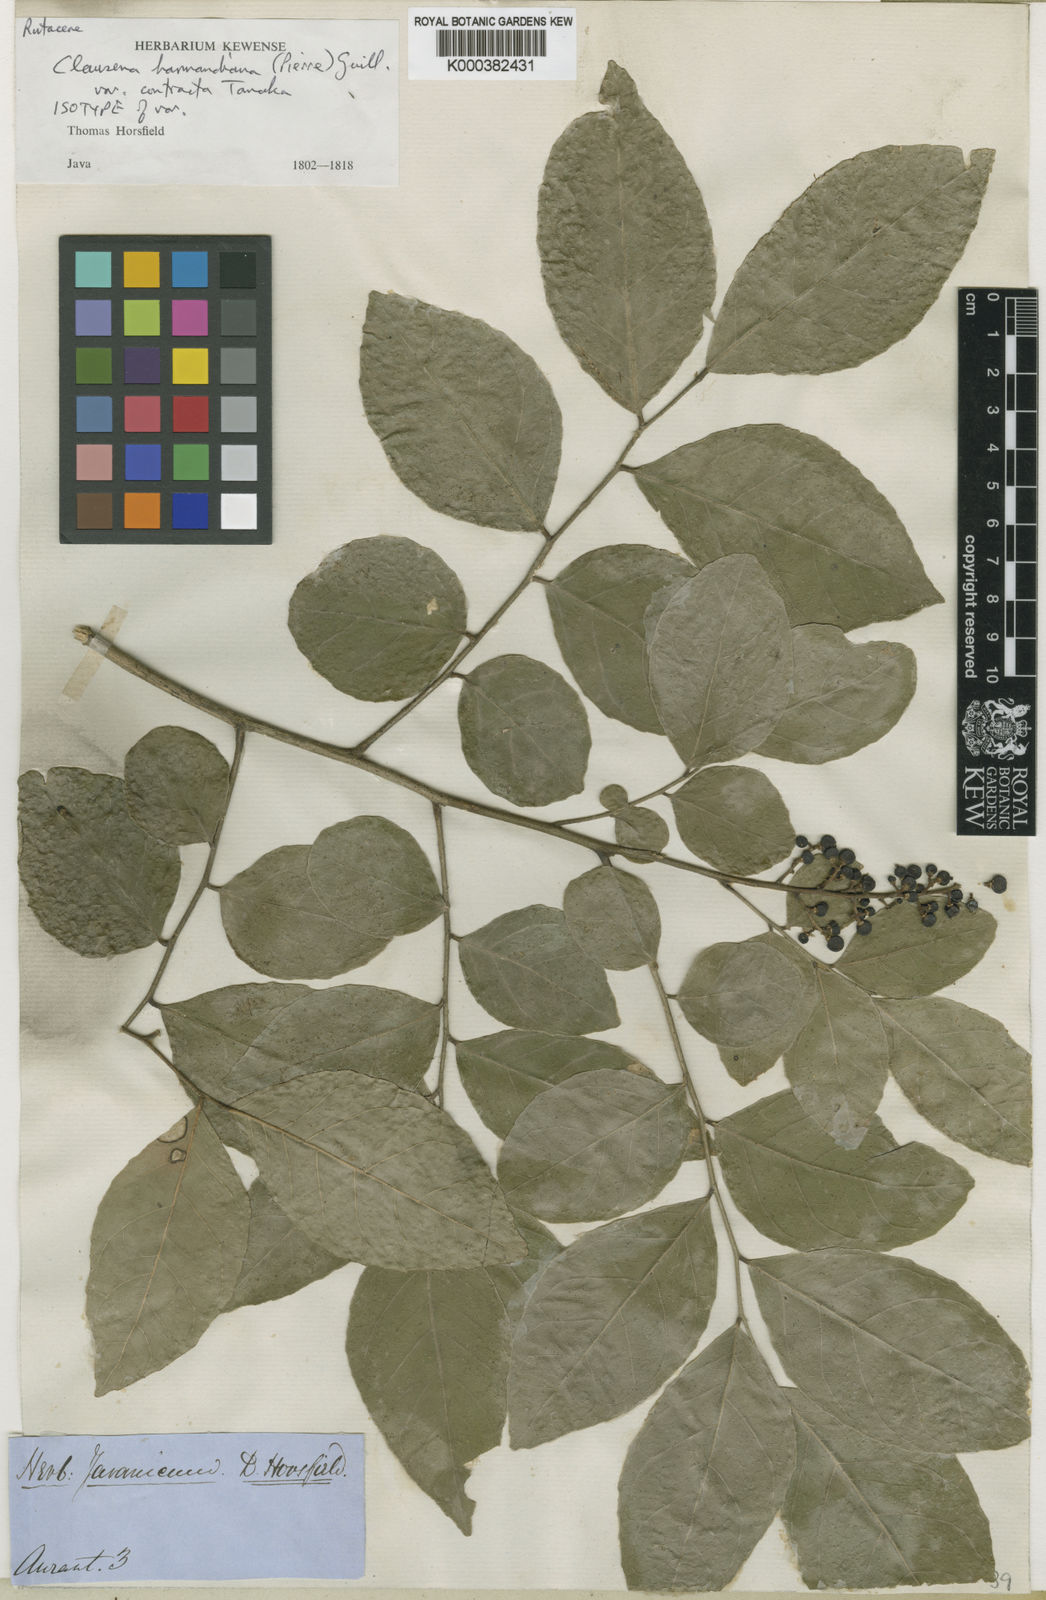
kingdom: Plantae
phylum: Tracheophyta
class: Magnoliopsida
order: Sapindales
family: Rutaceae
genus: Clausena
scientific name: Clausena harmandiana
